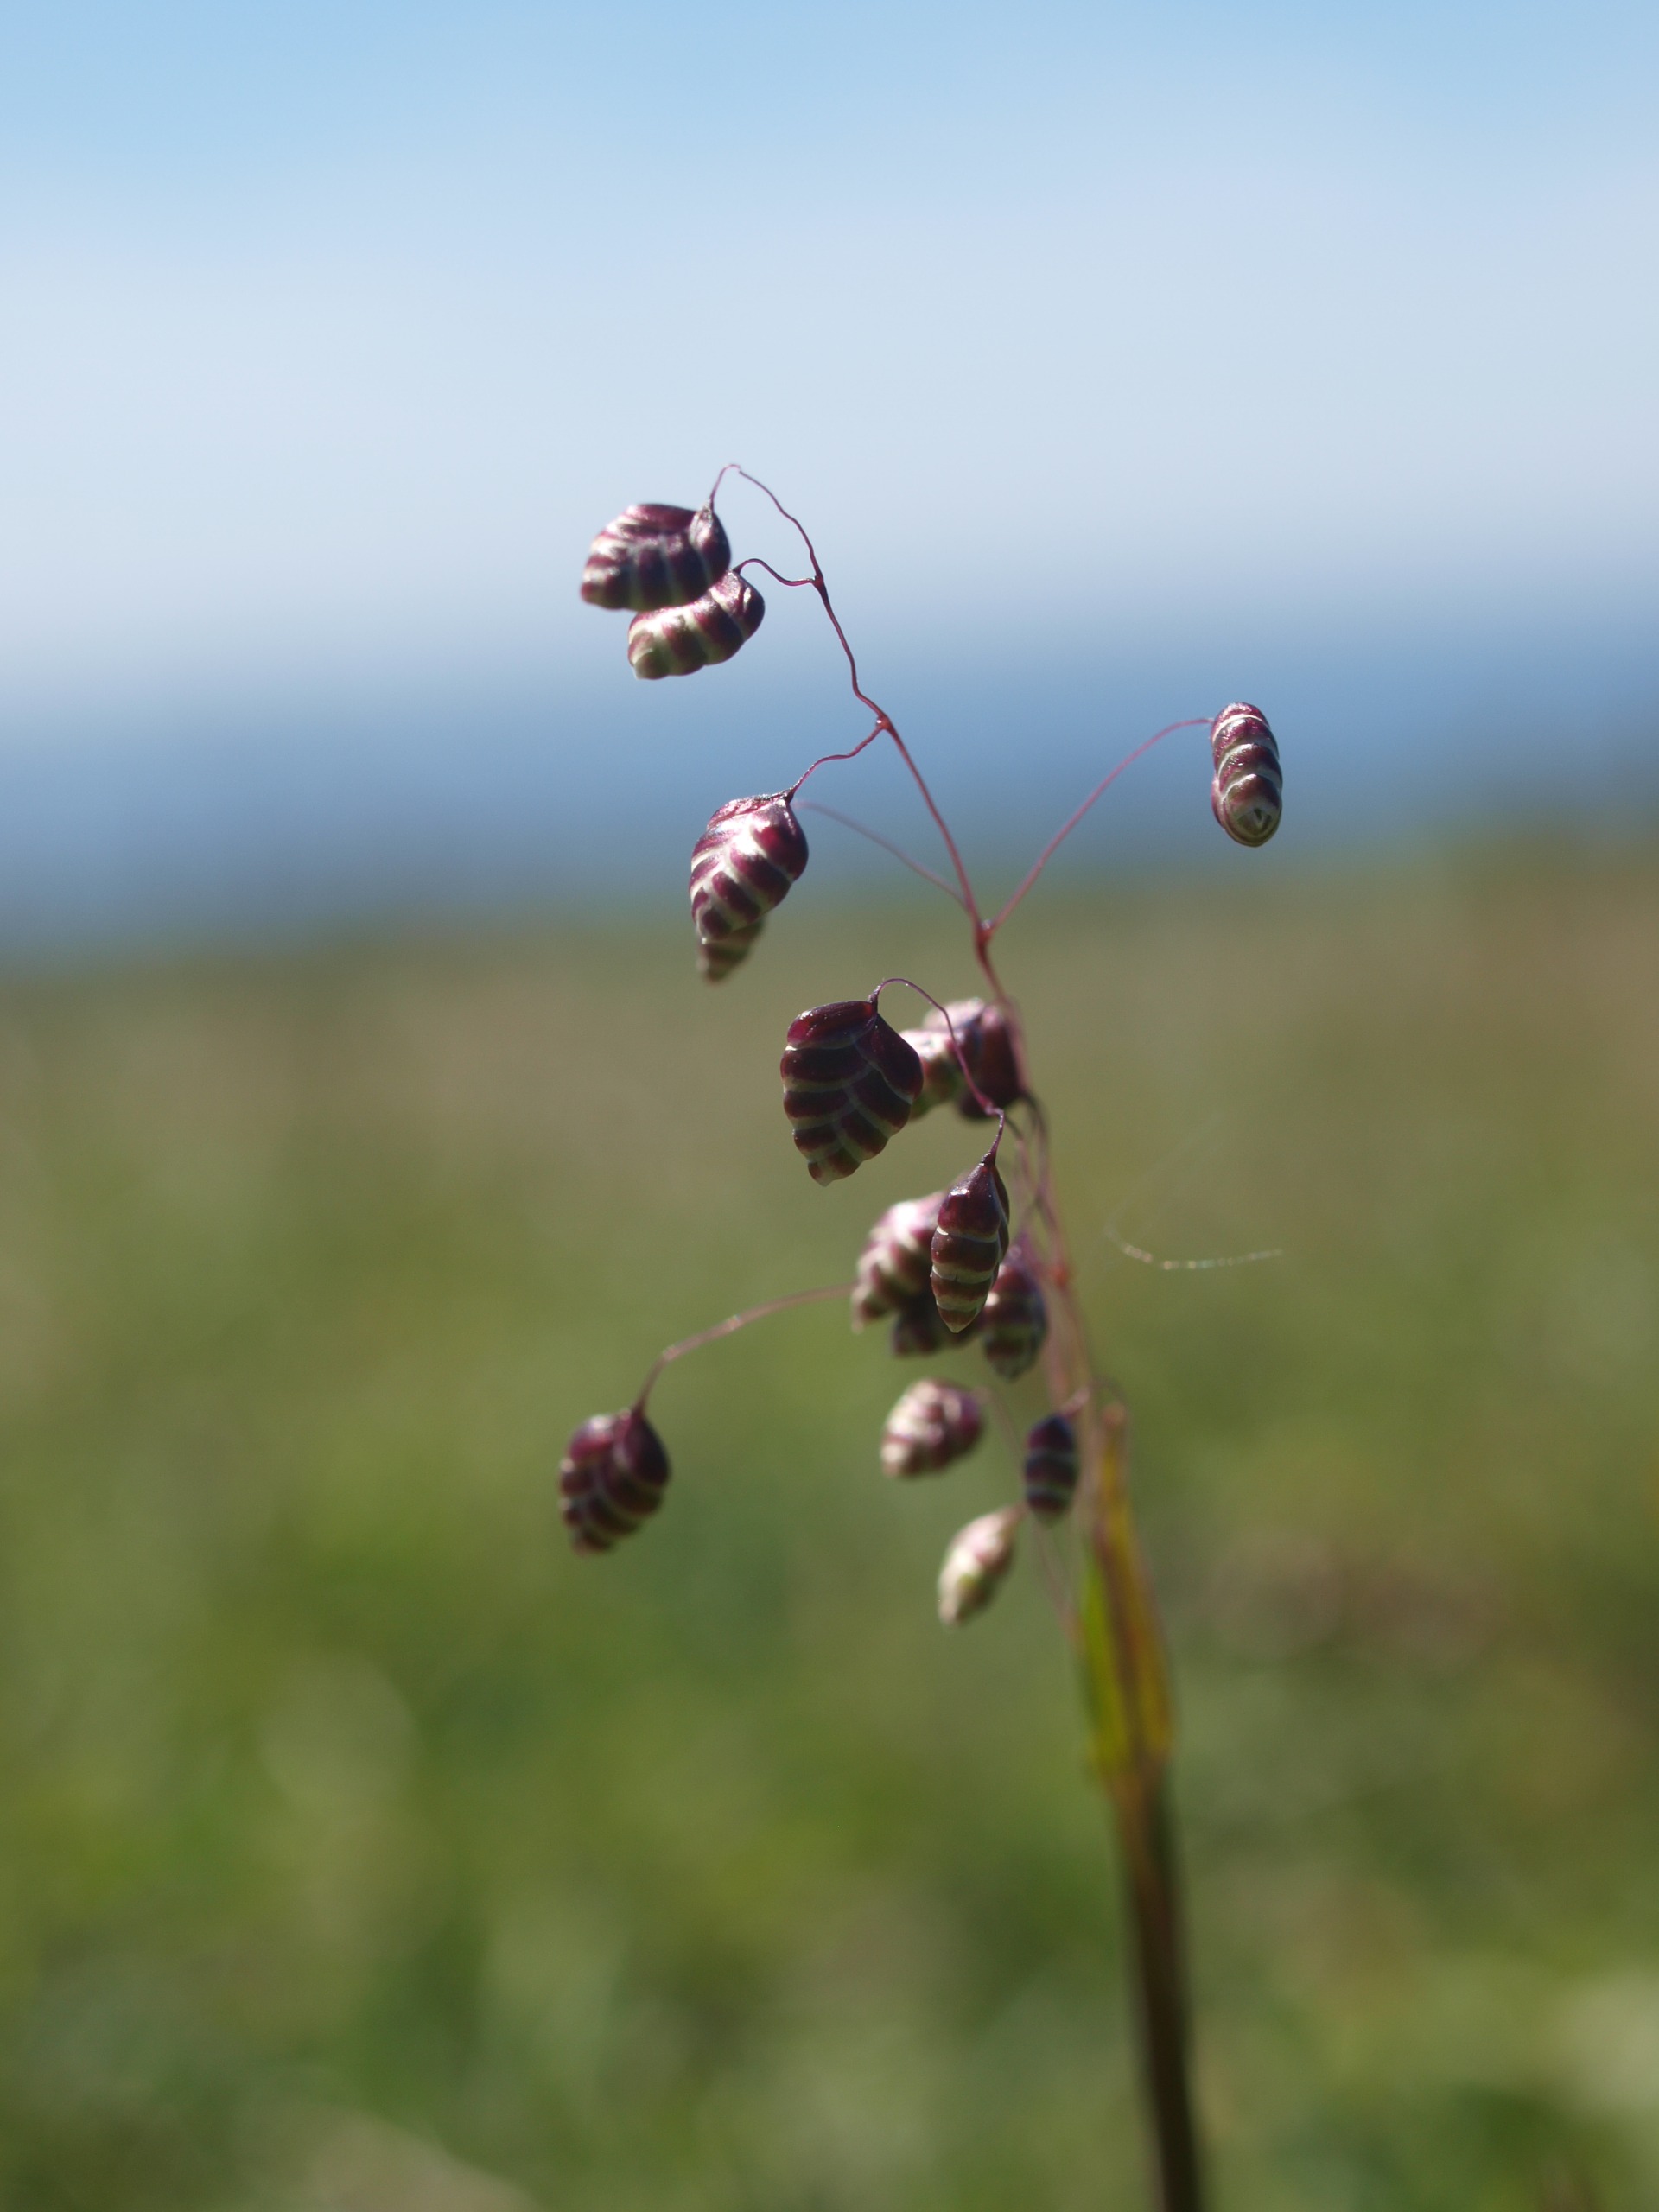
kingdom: Plantae
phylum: Tracheophyta
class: Liliopsida
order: Poales
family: Poaceae
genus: Briza
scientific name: Briza media
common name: Hjertegræs
